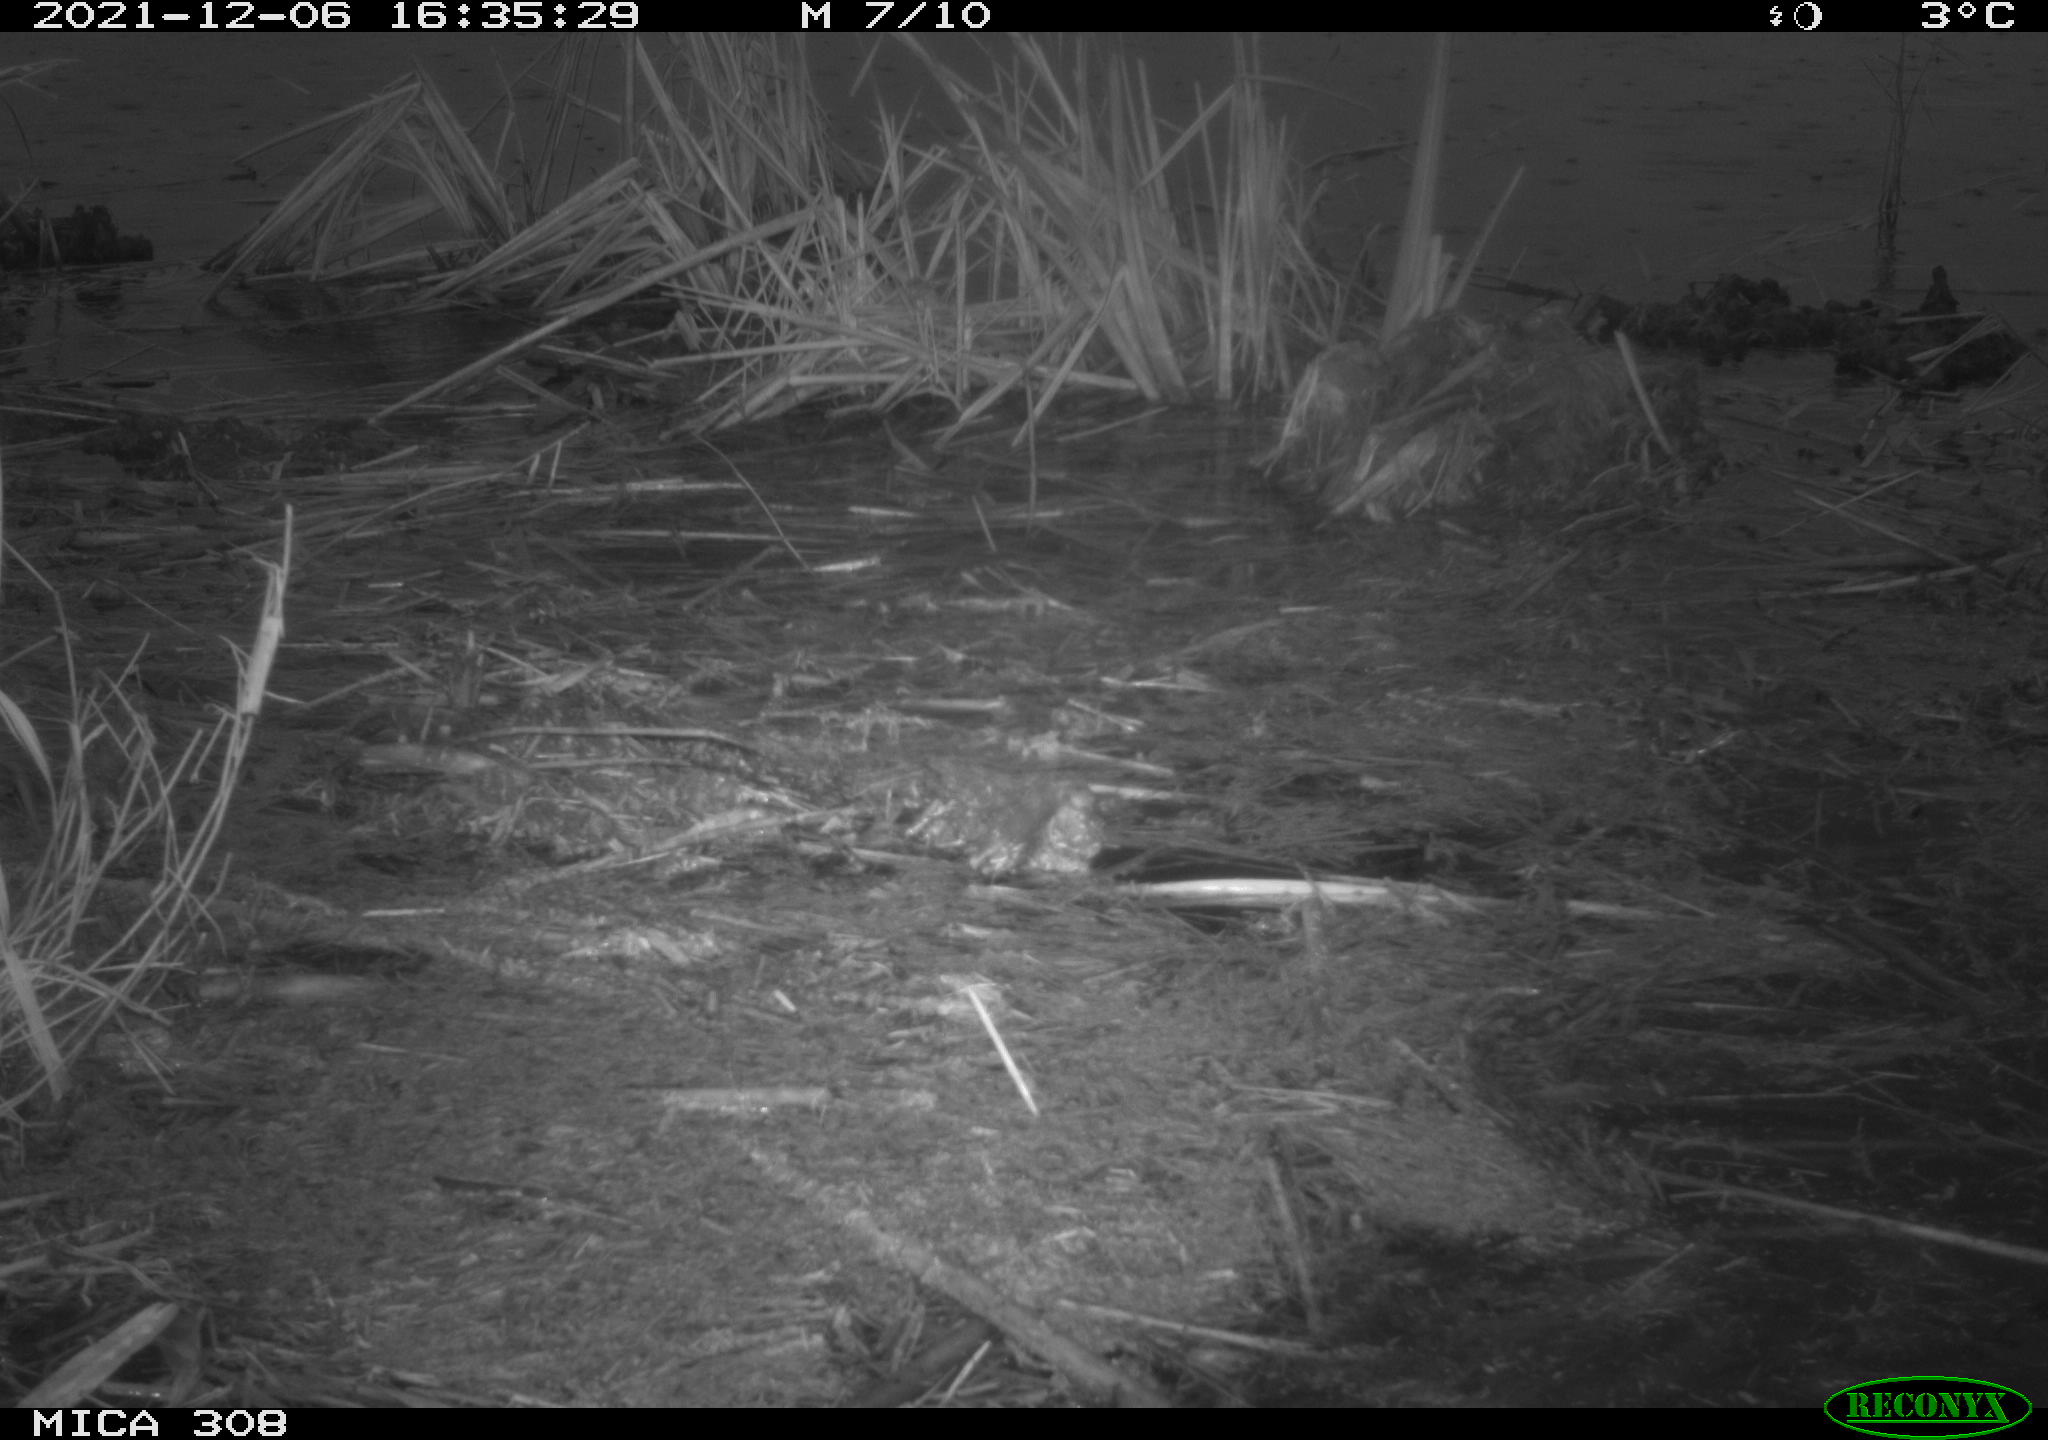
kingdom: Animalia
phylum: Chordata
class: Aves
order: Gruiformes
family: Rallidae
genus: Fulica
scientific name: Fulica atra
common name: Eurasian coot
